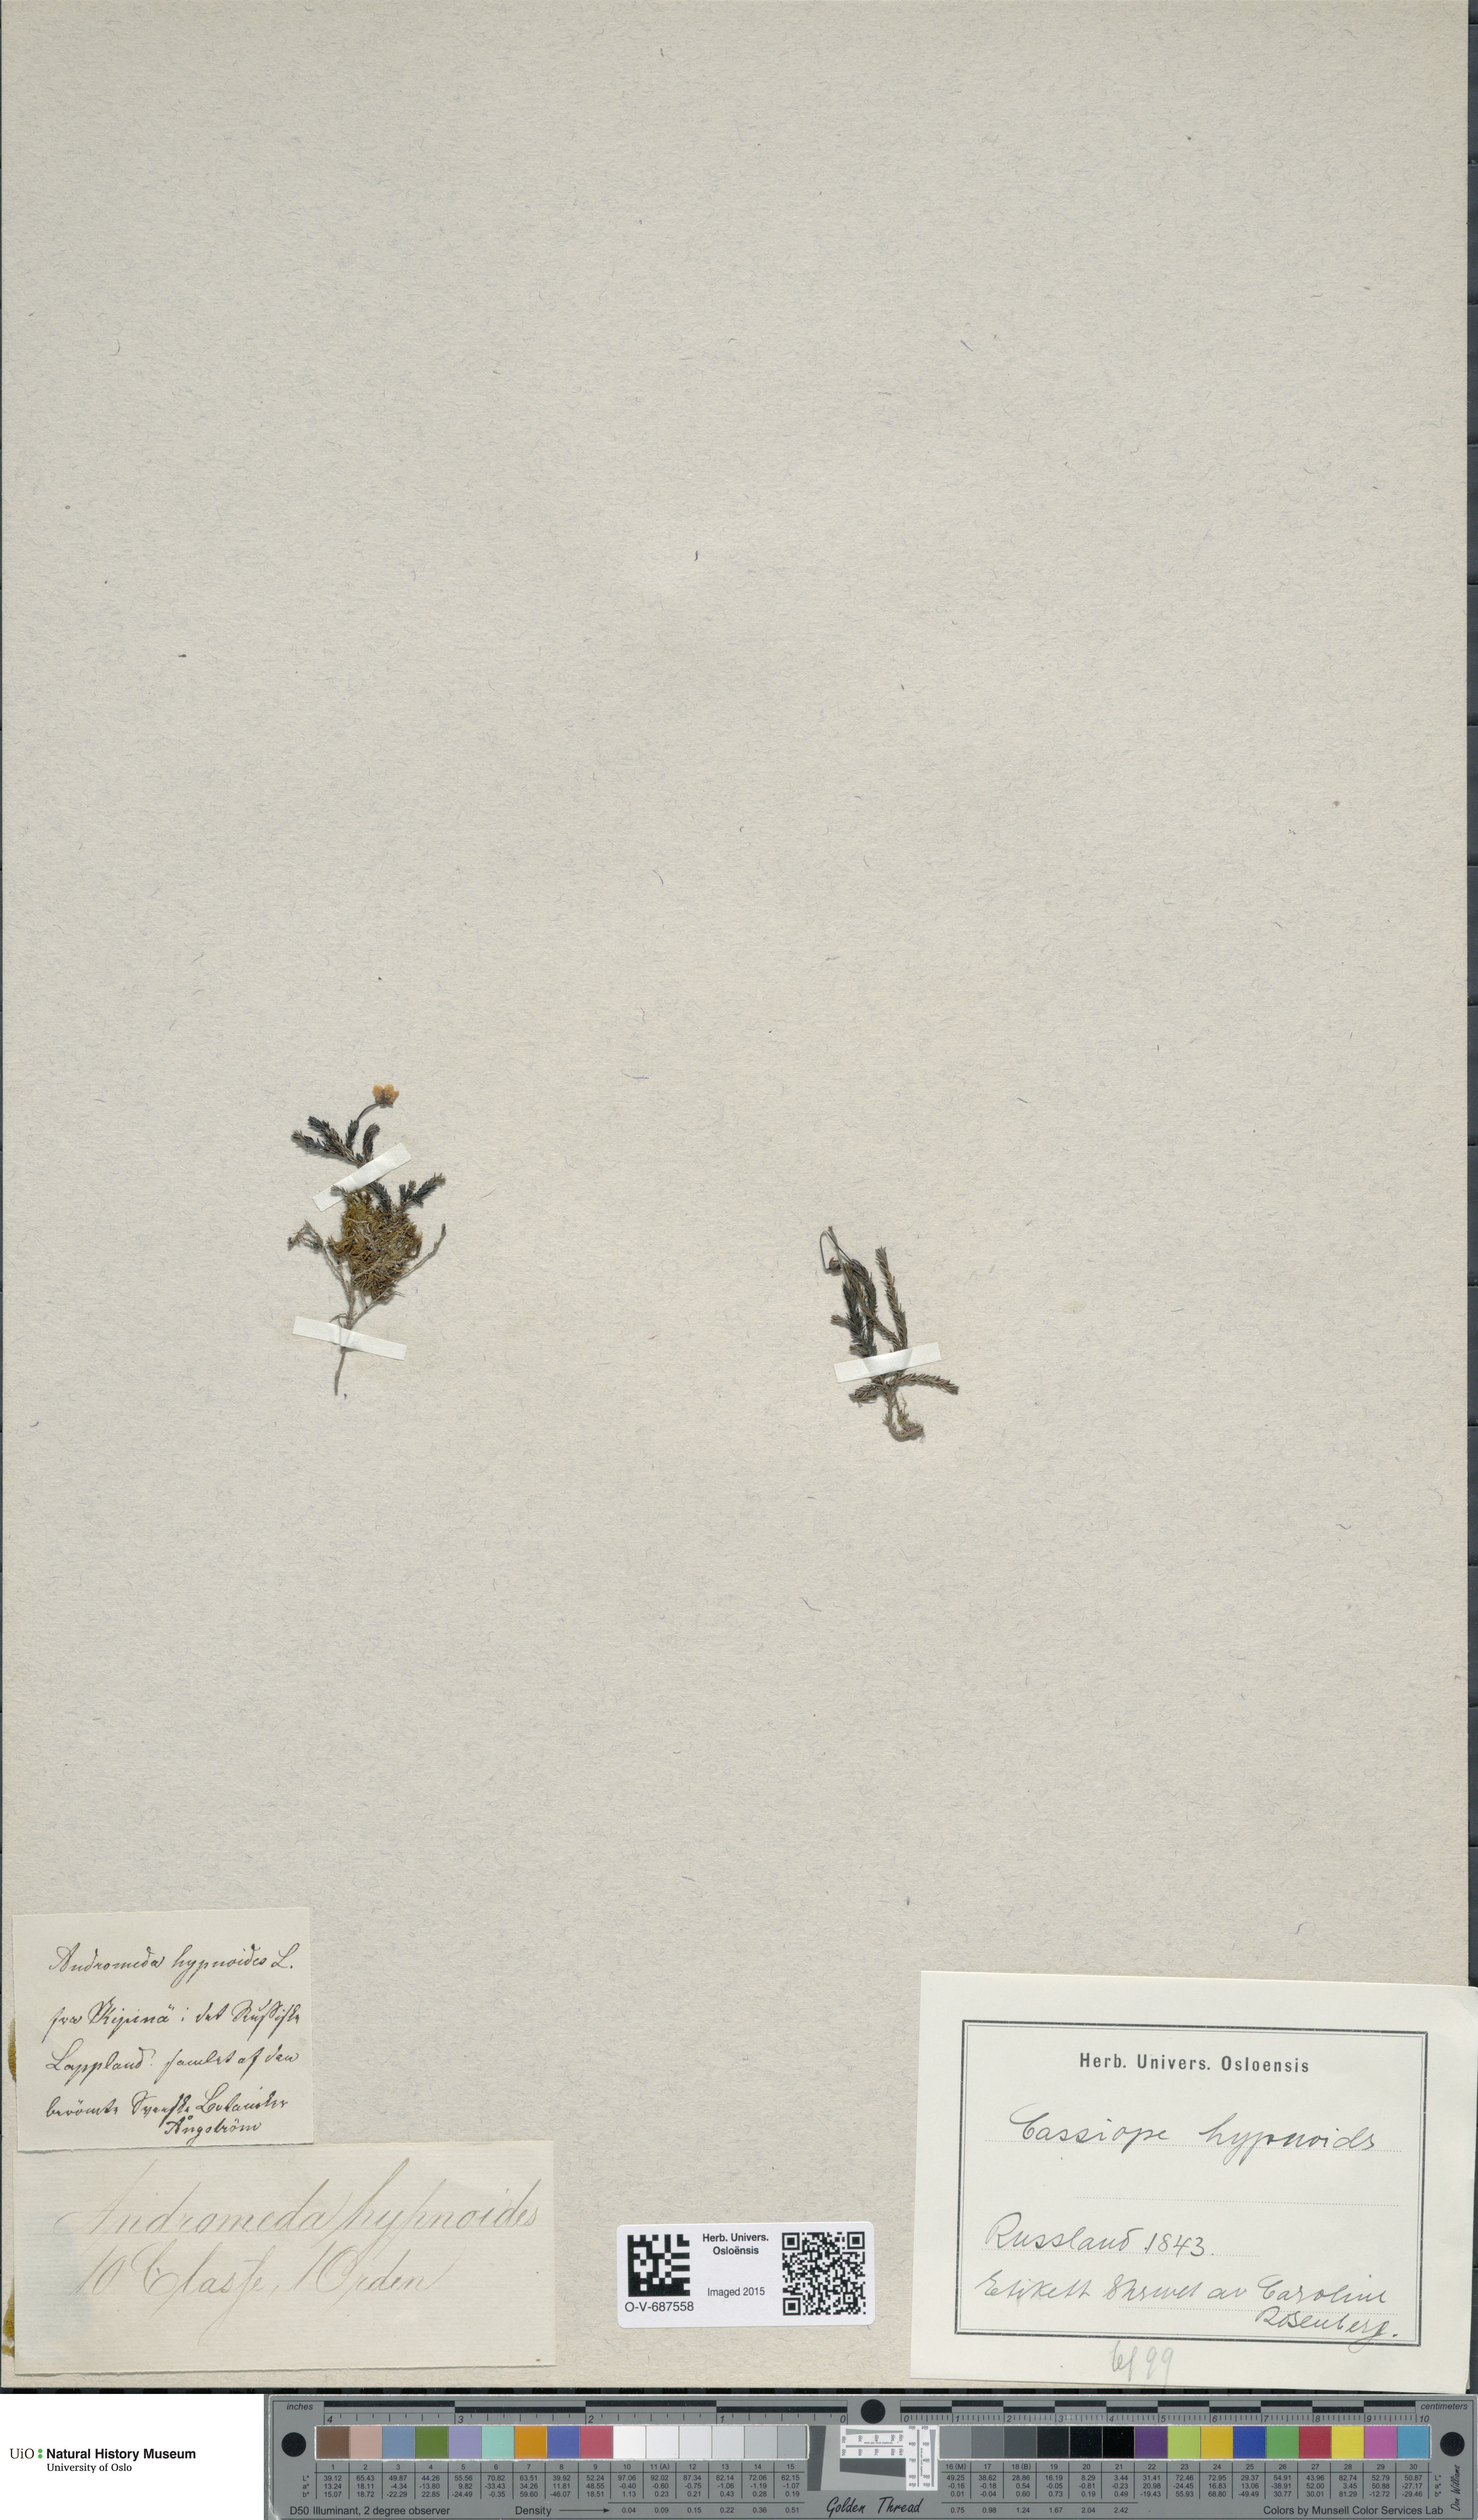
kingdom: Plantae
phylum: Tracheophyta
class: Magnoliopsida
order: Ericales
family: Ericaceae
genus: Harrimanella
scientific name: Harrimanella hypnoides
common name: Moss bell heather
